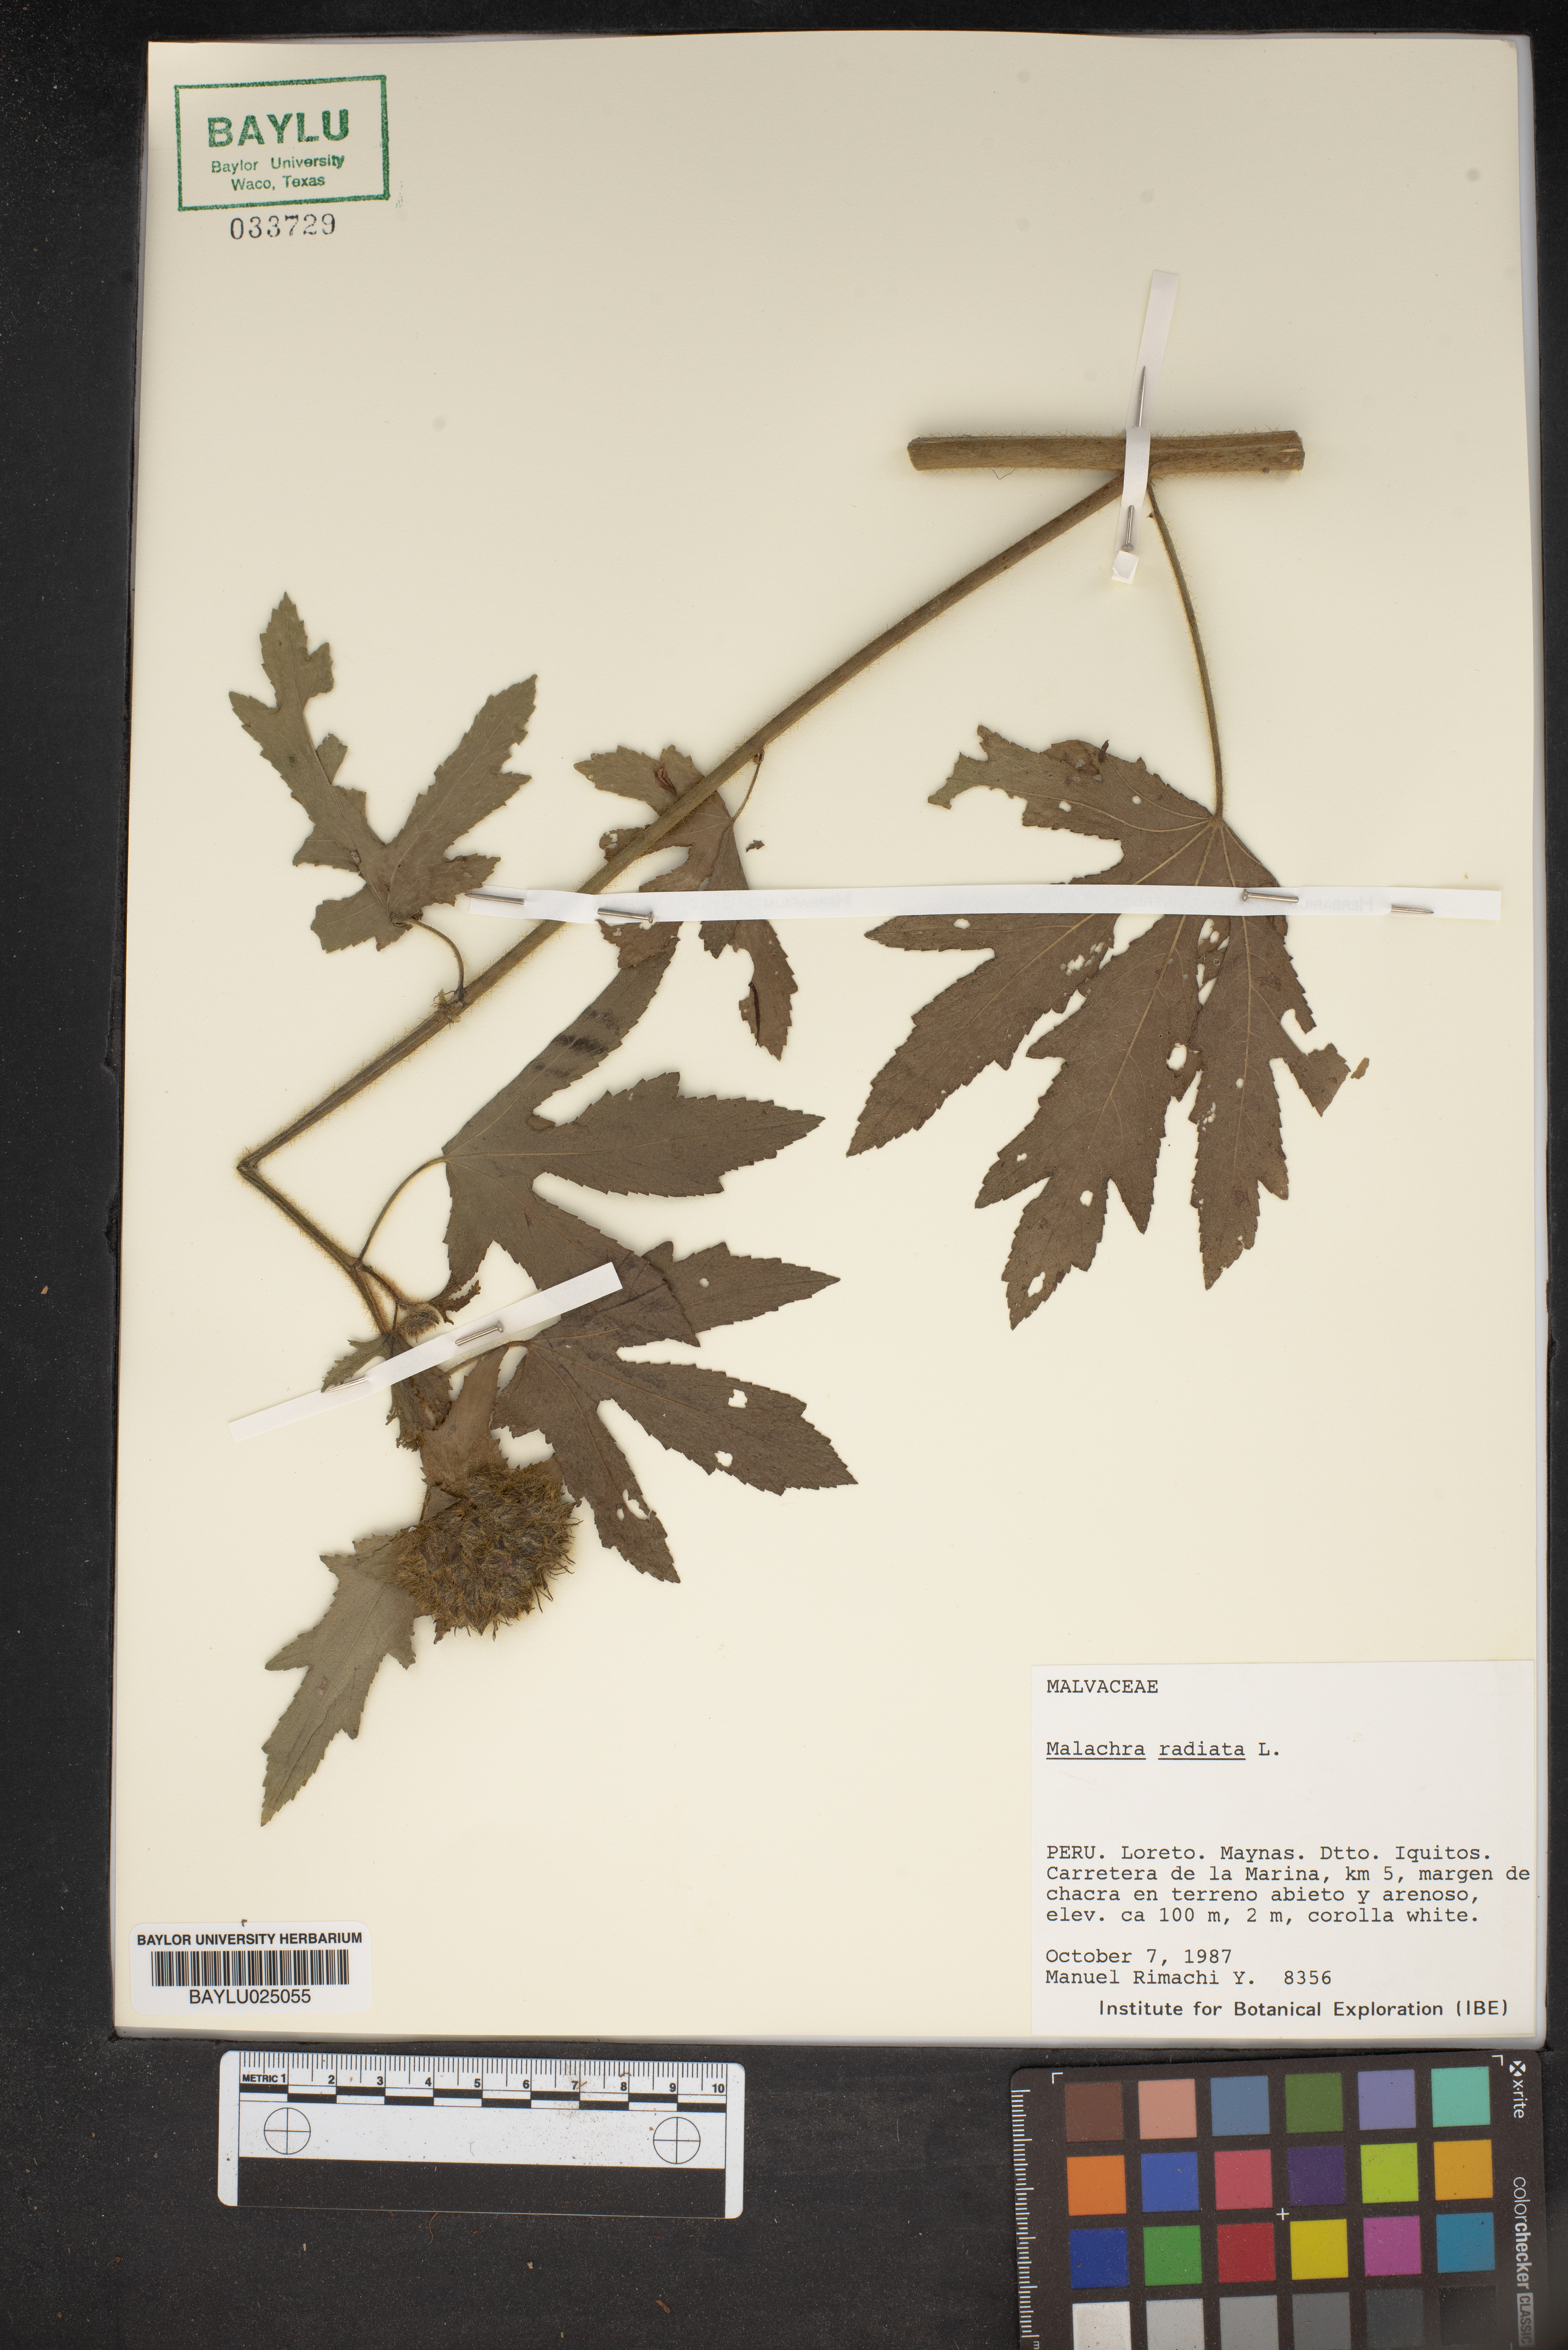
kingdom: Plantae
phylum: Tracheophyta
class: Magnoliopsida
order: Malvales
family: Malvaceae
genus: Malachra
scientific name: Malachra radiata
